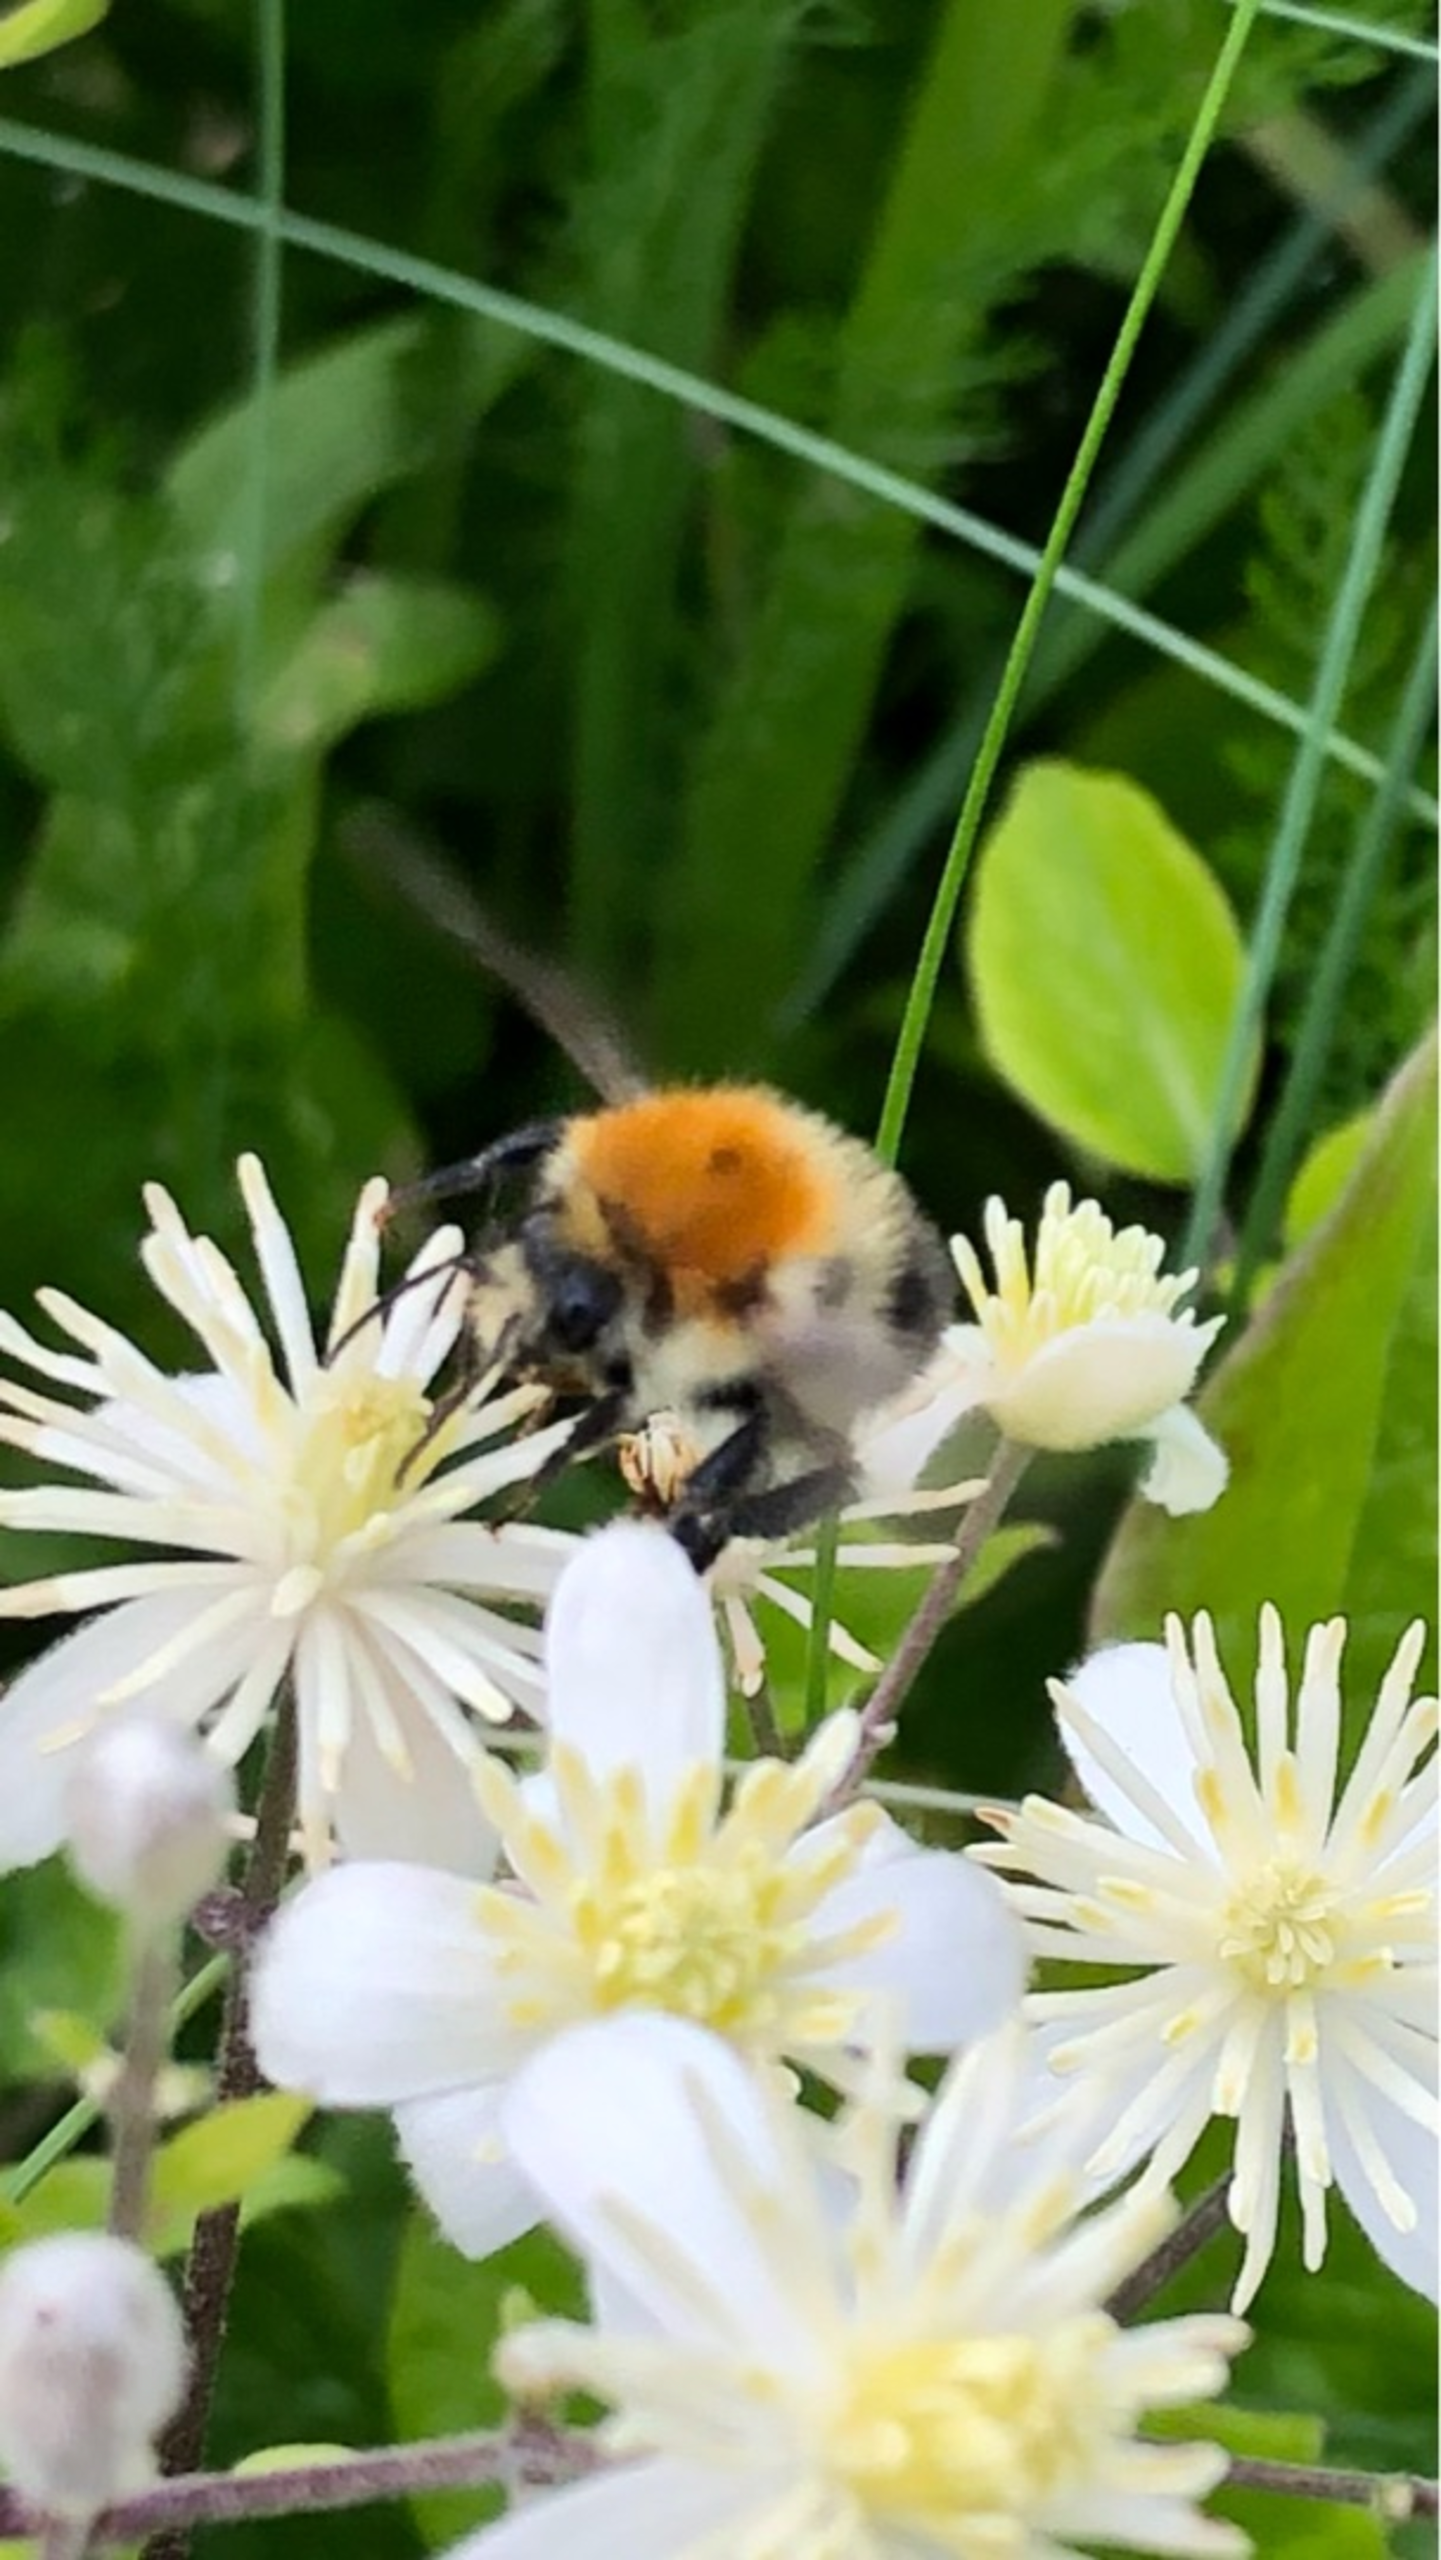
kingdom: Animalia
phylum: Arthropoda
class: Insecta
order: Hymenoptera
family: Apidae
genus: Bombus
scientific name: Bombus pascuorum
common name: Agerhumle
